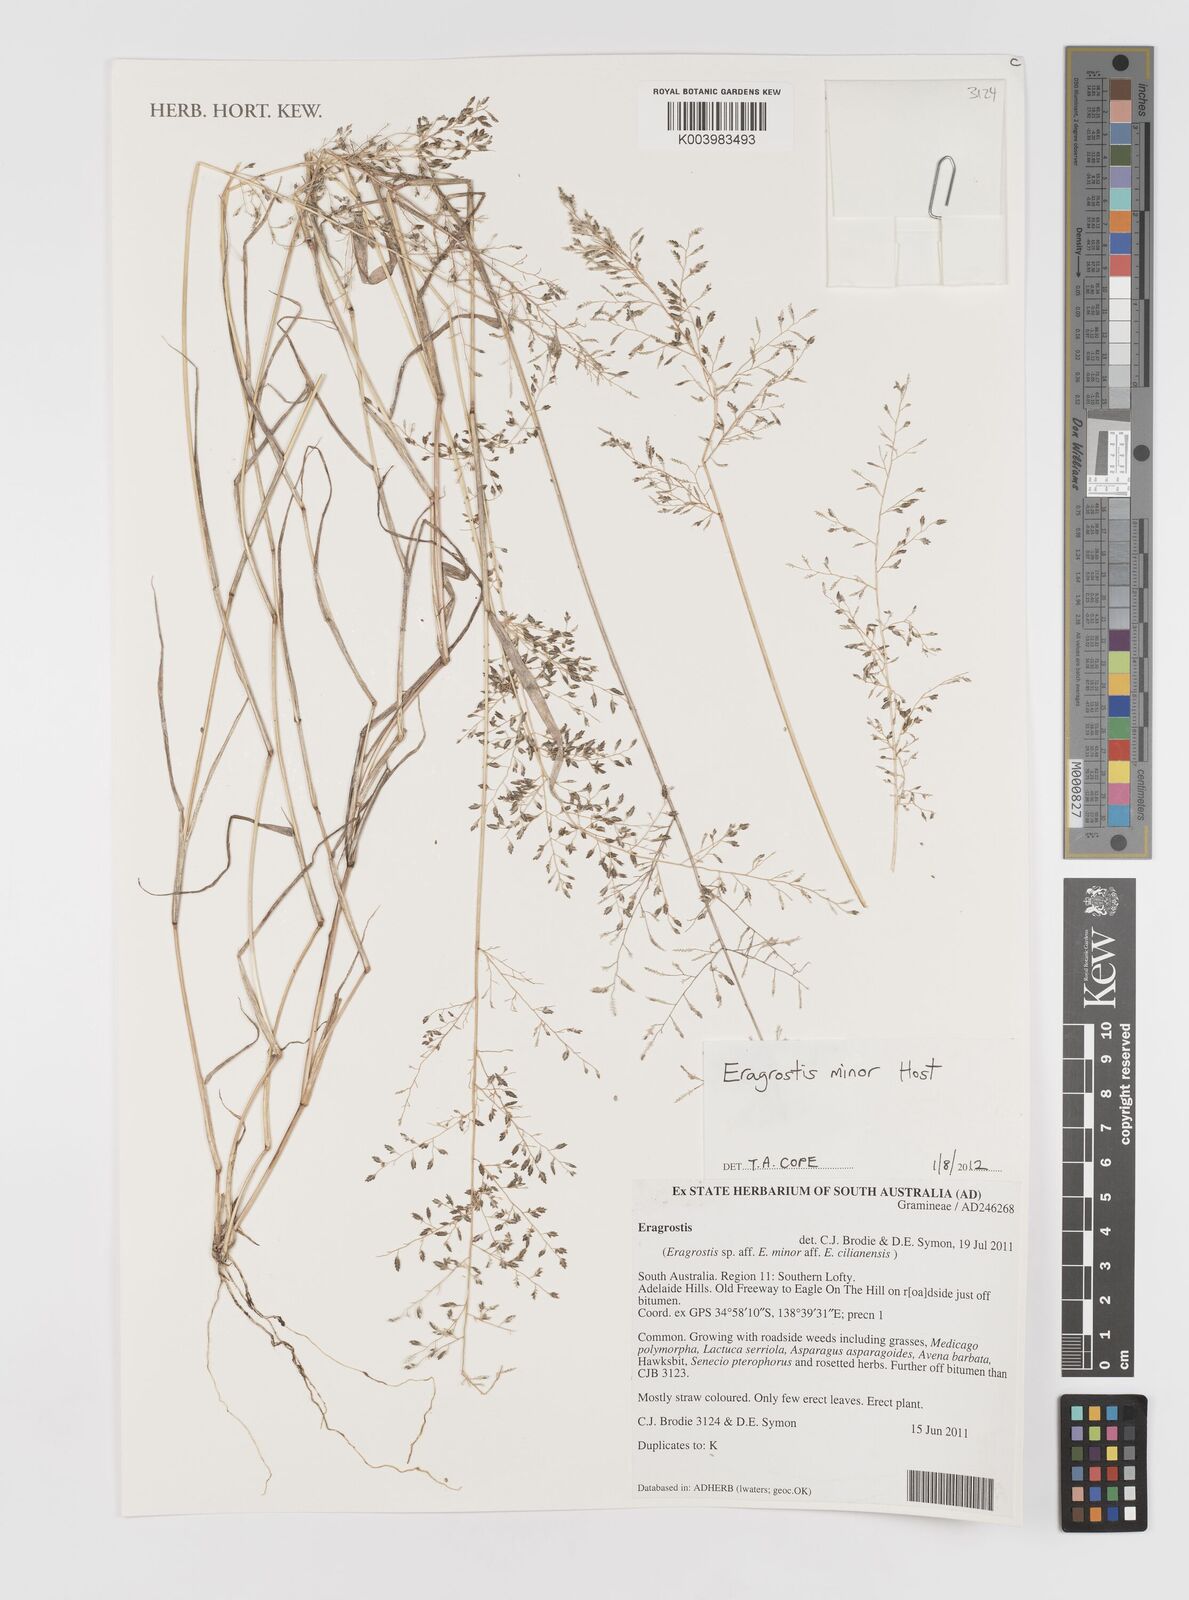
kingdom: Plantae
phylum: Tracheophyta
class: Liliopsida
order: Poales
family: Poaceae
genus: Eragrostis
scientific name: Eragrostis minor
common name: Small love-grass
